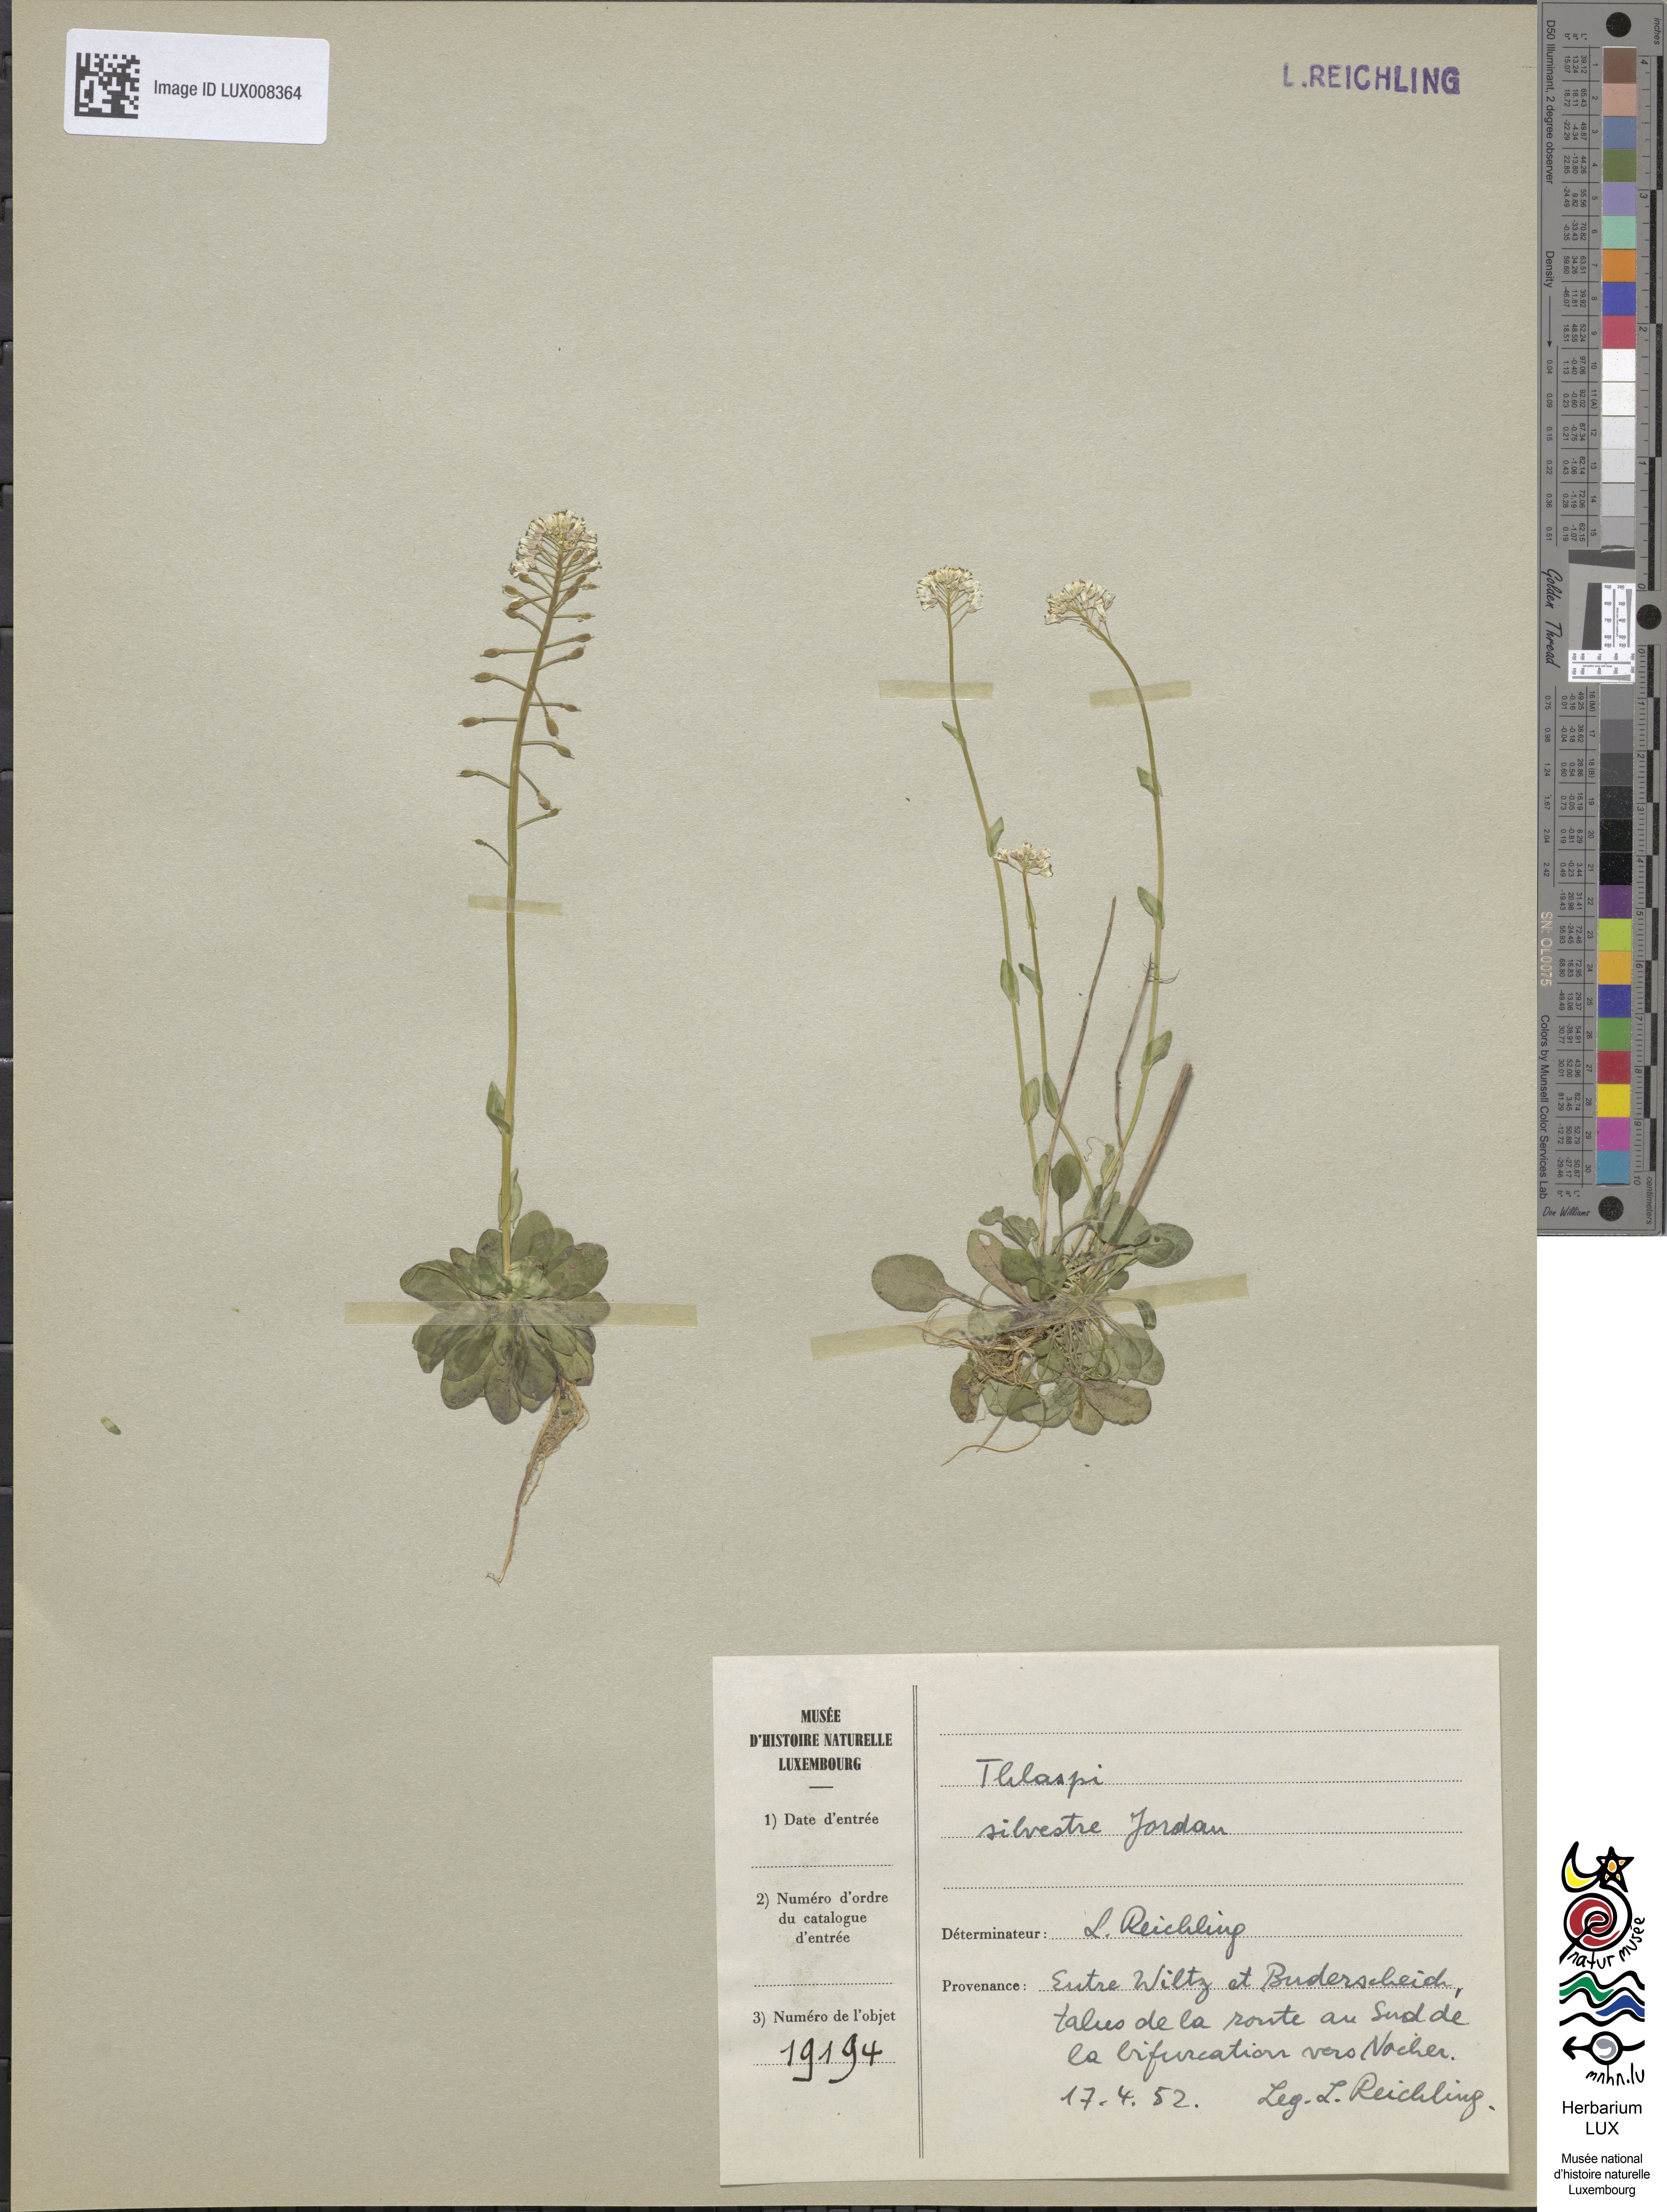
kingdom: Plantae
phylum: Tracheophyta
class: Magnoliopsida
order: Brassicales
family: Brassicaceae
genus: Noccaea
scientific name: Noccaea caerulescens
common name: Alpine pennycress
